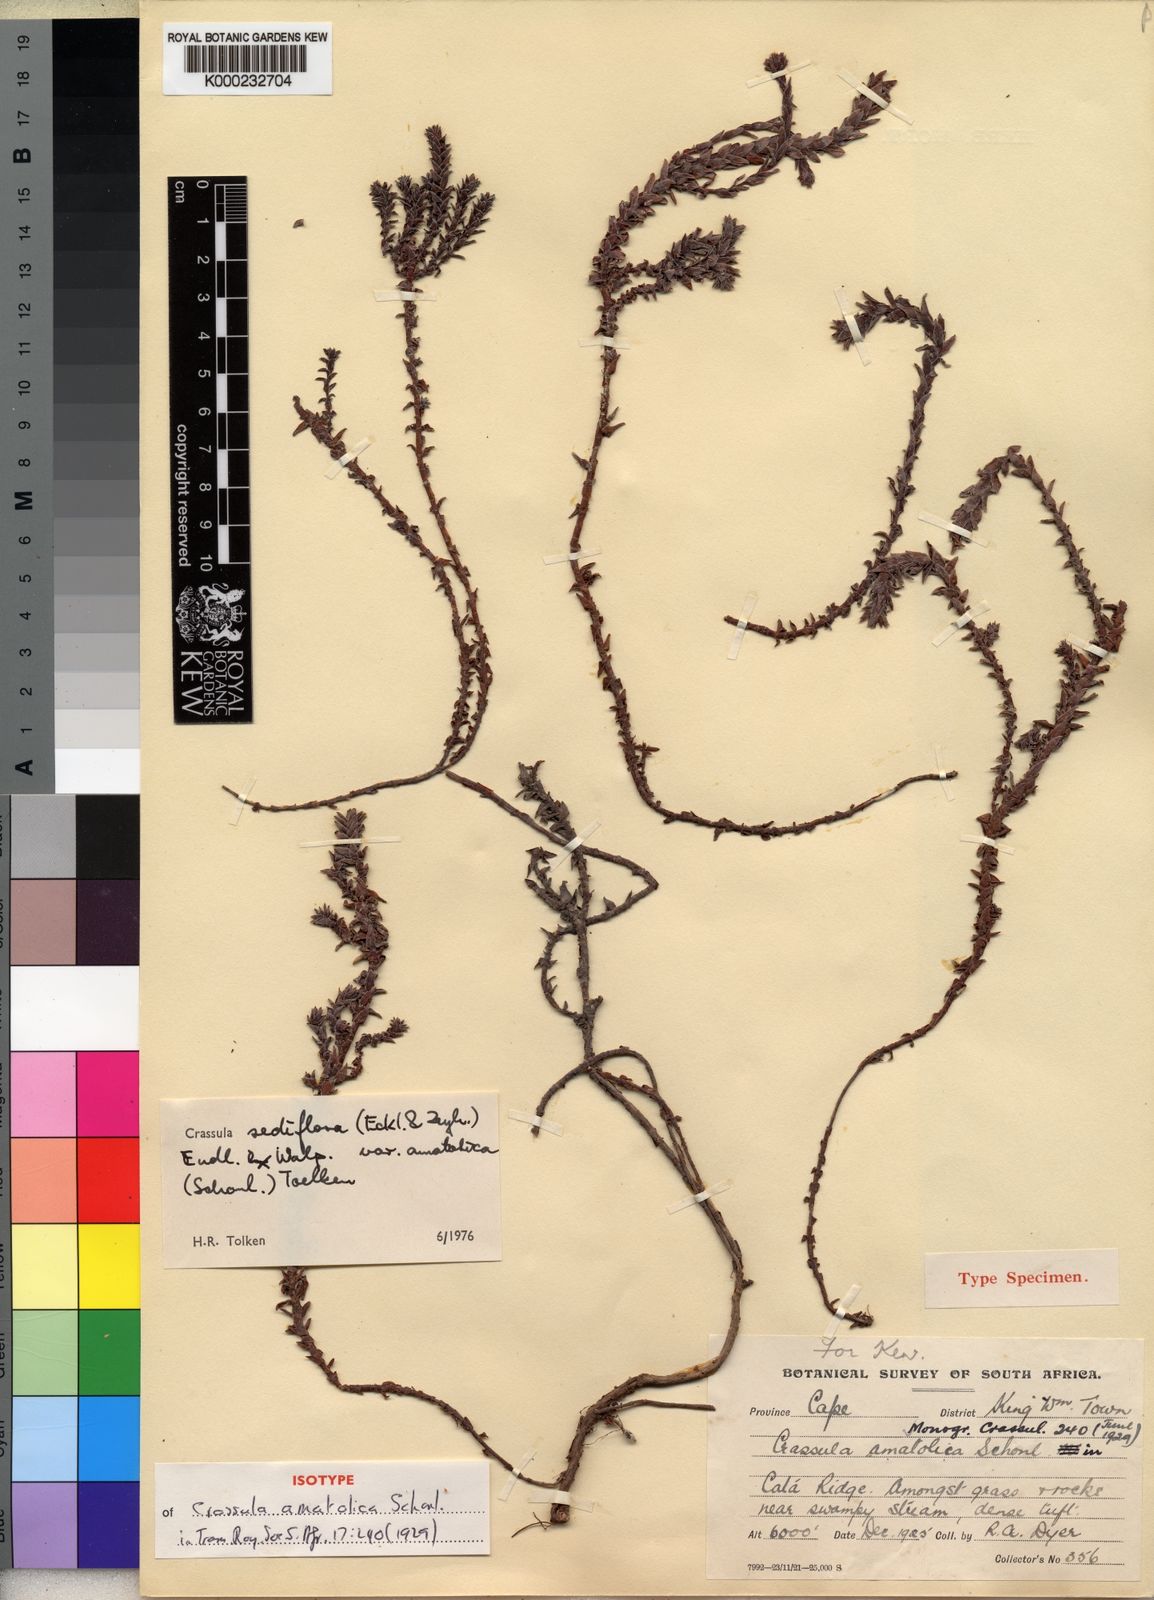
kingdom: Plantae
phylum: Tracheophyta
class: Magnoliopsida
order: Saxifragales
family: Crassulaceae
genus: Crassula
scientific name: Crassula sediflora
